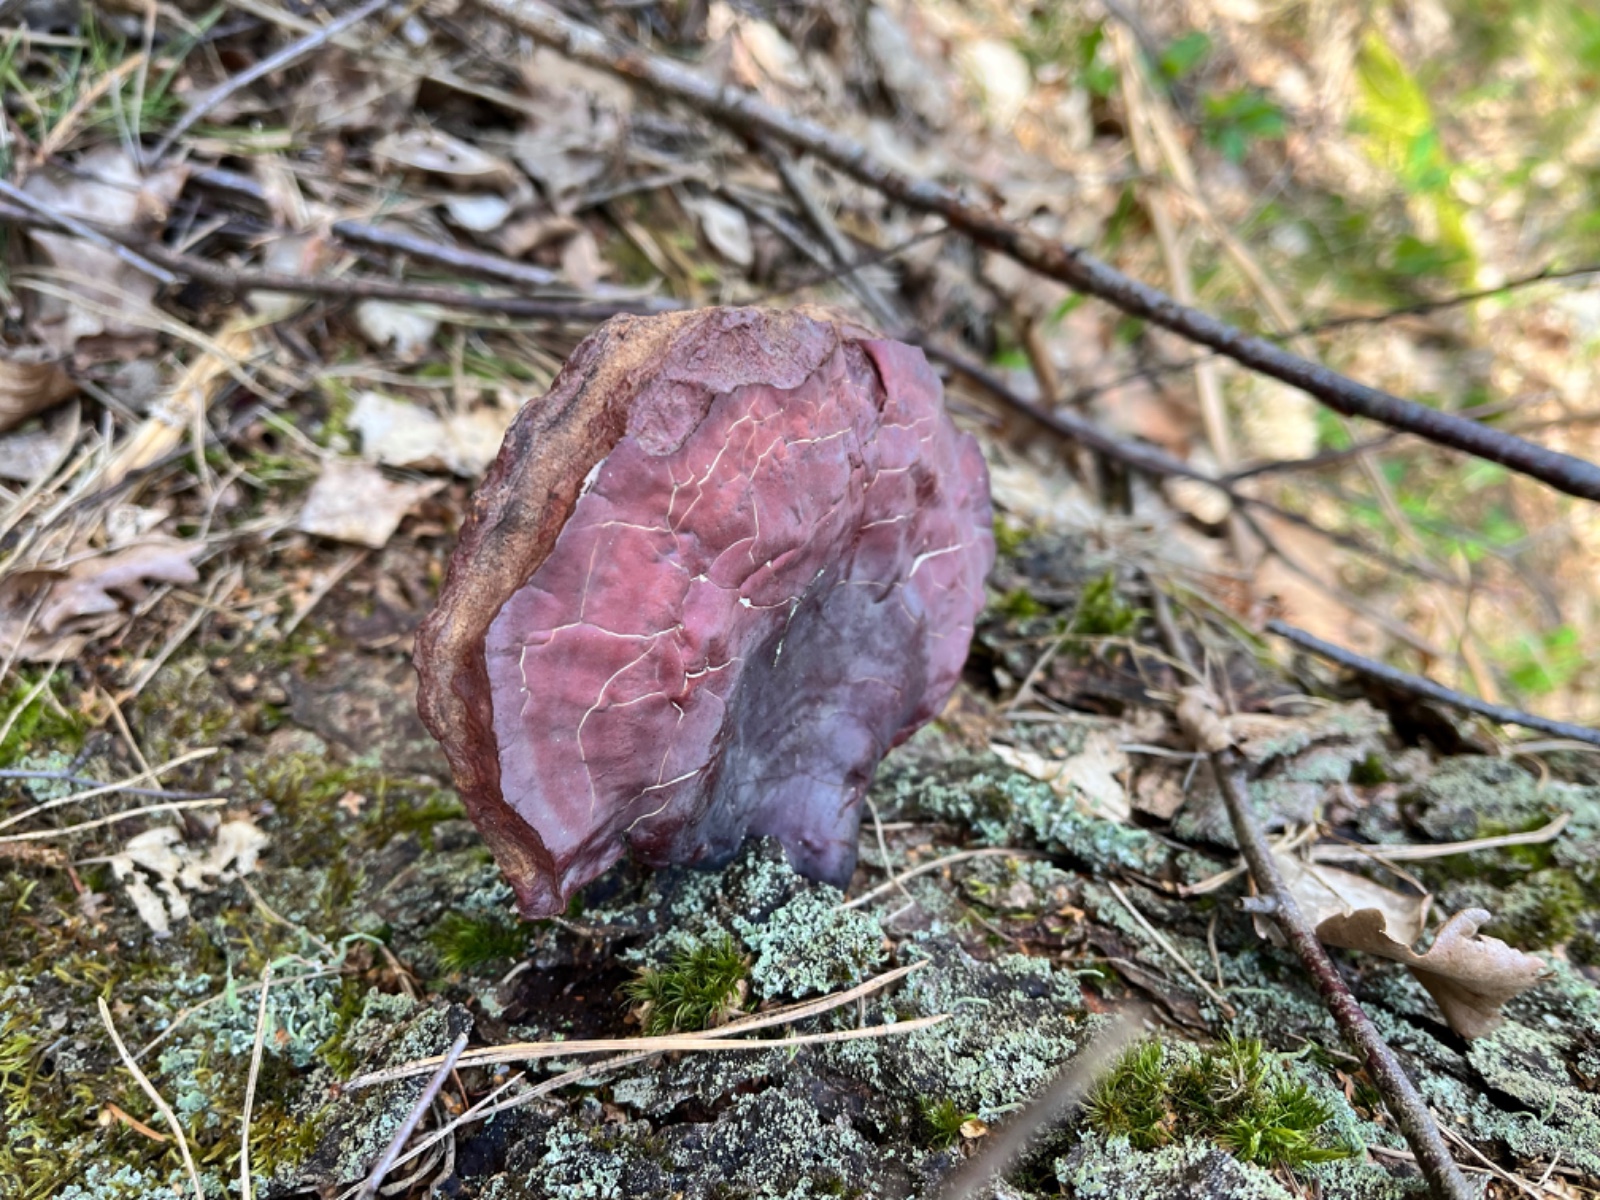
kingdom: Fungi
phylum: Basidiomycota
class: Agaricomycetes
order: Polyporales
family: Polyporaceae
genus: Ganoderma
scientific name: Ganoderma lucidum
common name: skinnende lakporesvamp
